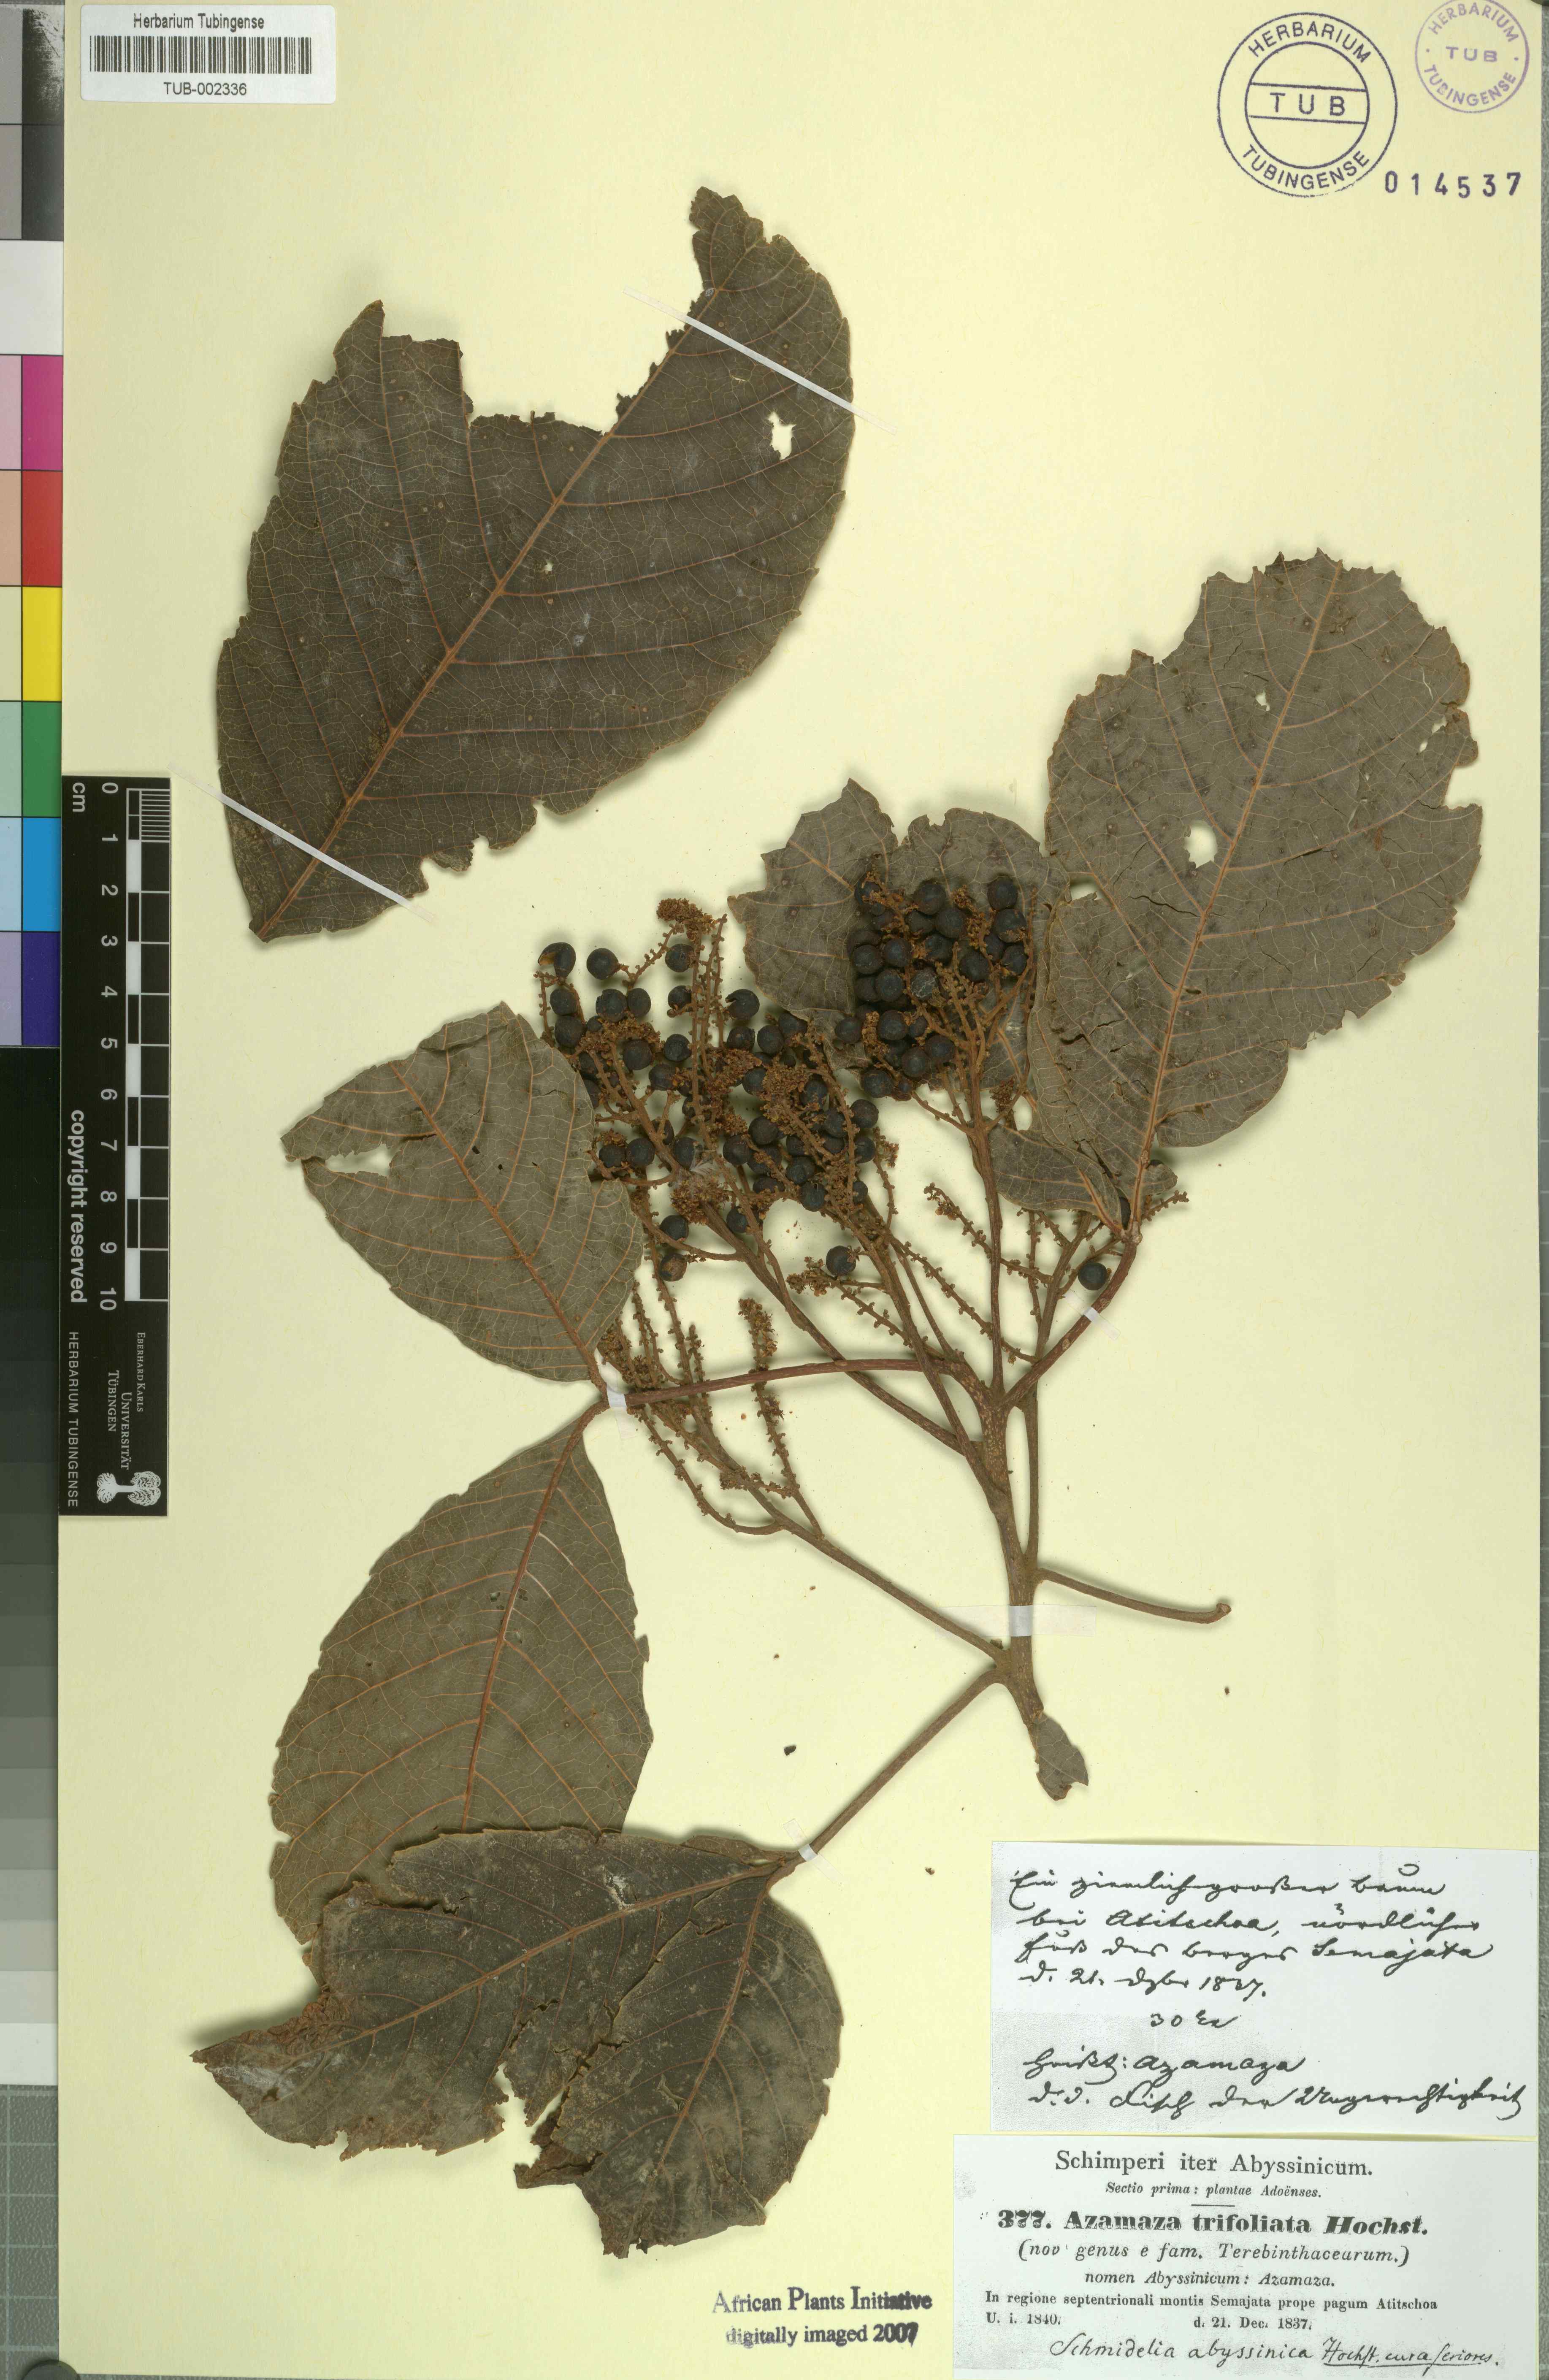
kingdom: Plantae
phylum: Tracheophyta
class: Magnoliopsida
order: Sapindales
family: Sapindaceae
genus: Allophylus
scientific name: Allophylus zeylanicus
